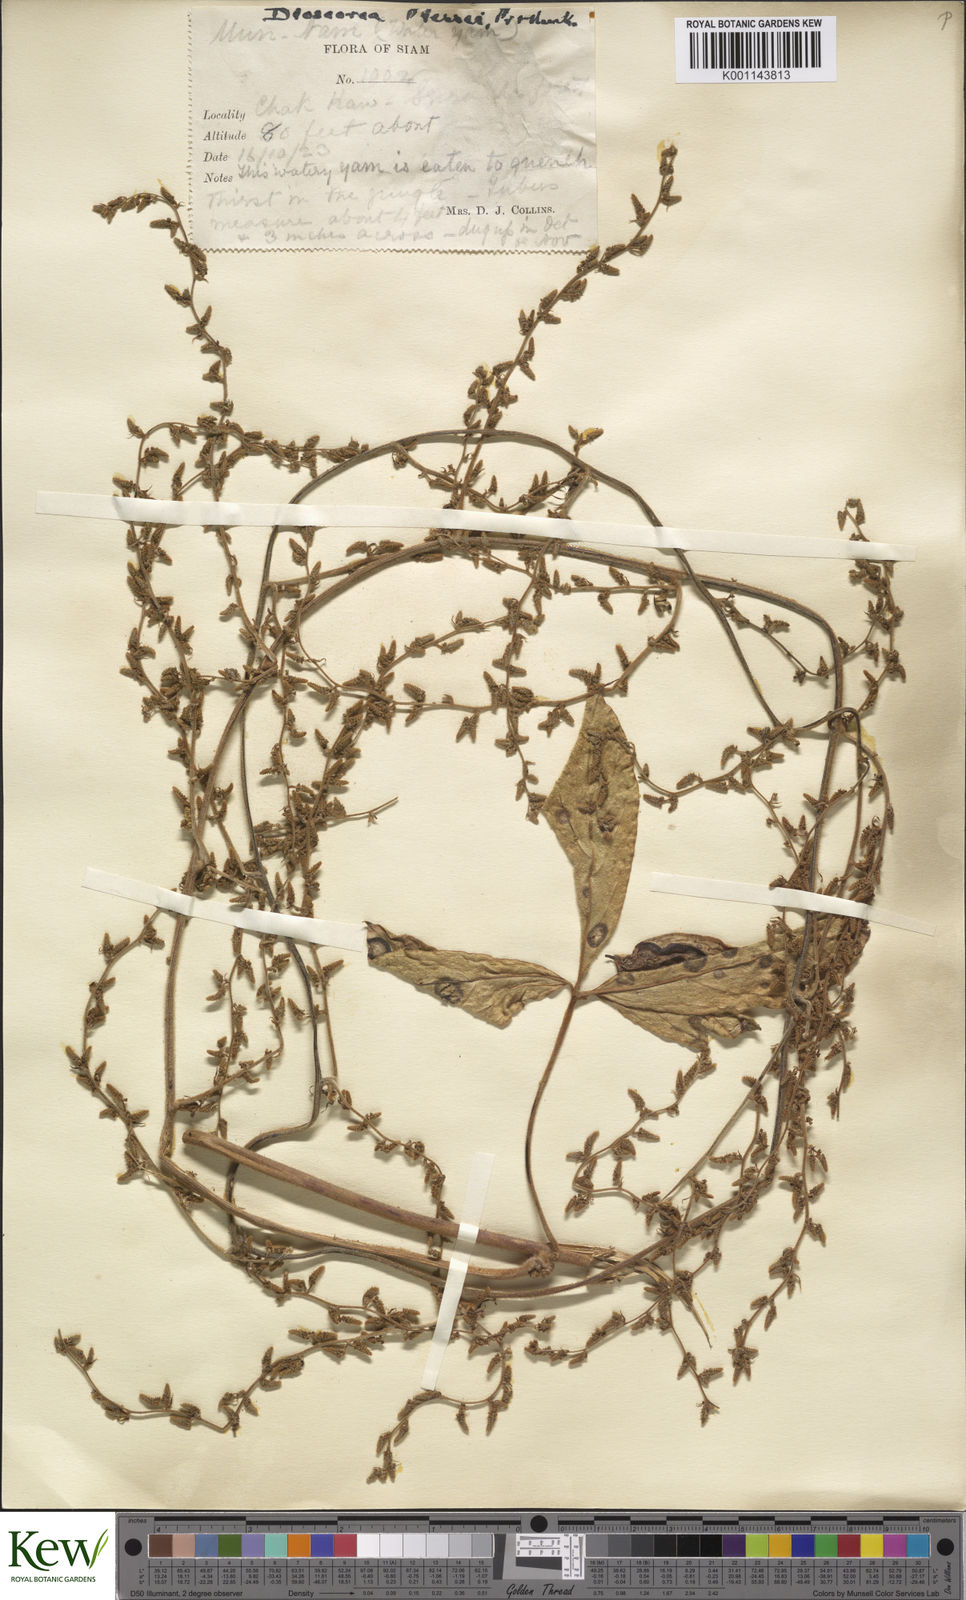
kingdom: Plantae
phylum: Tracheophyta
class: Liliopsida
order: Dioscoreales
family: Dioscoreaceae
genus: Dioscorea
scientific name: Dioscorea pierrei
